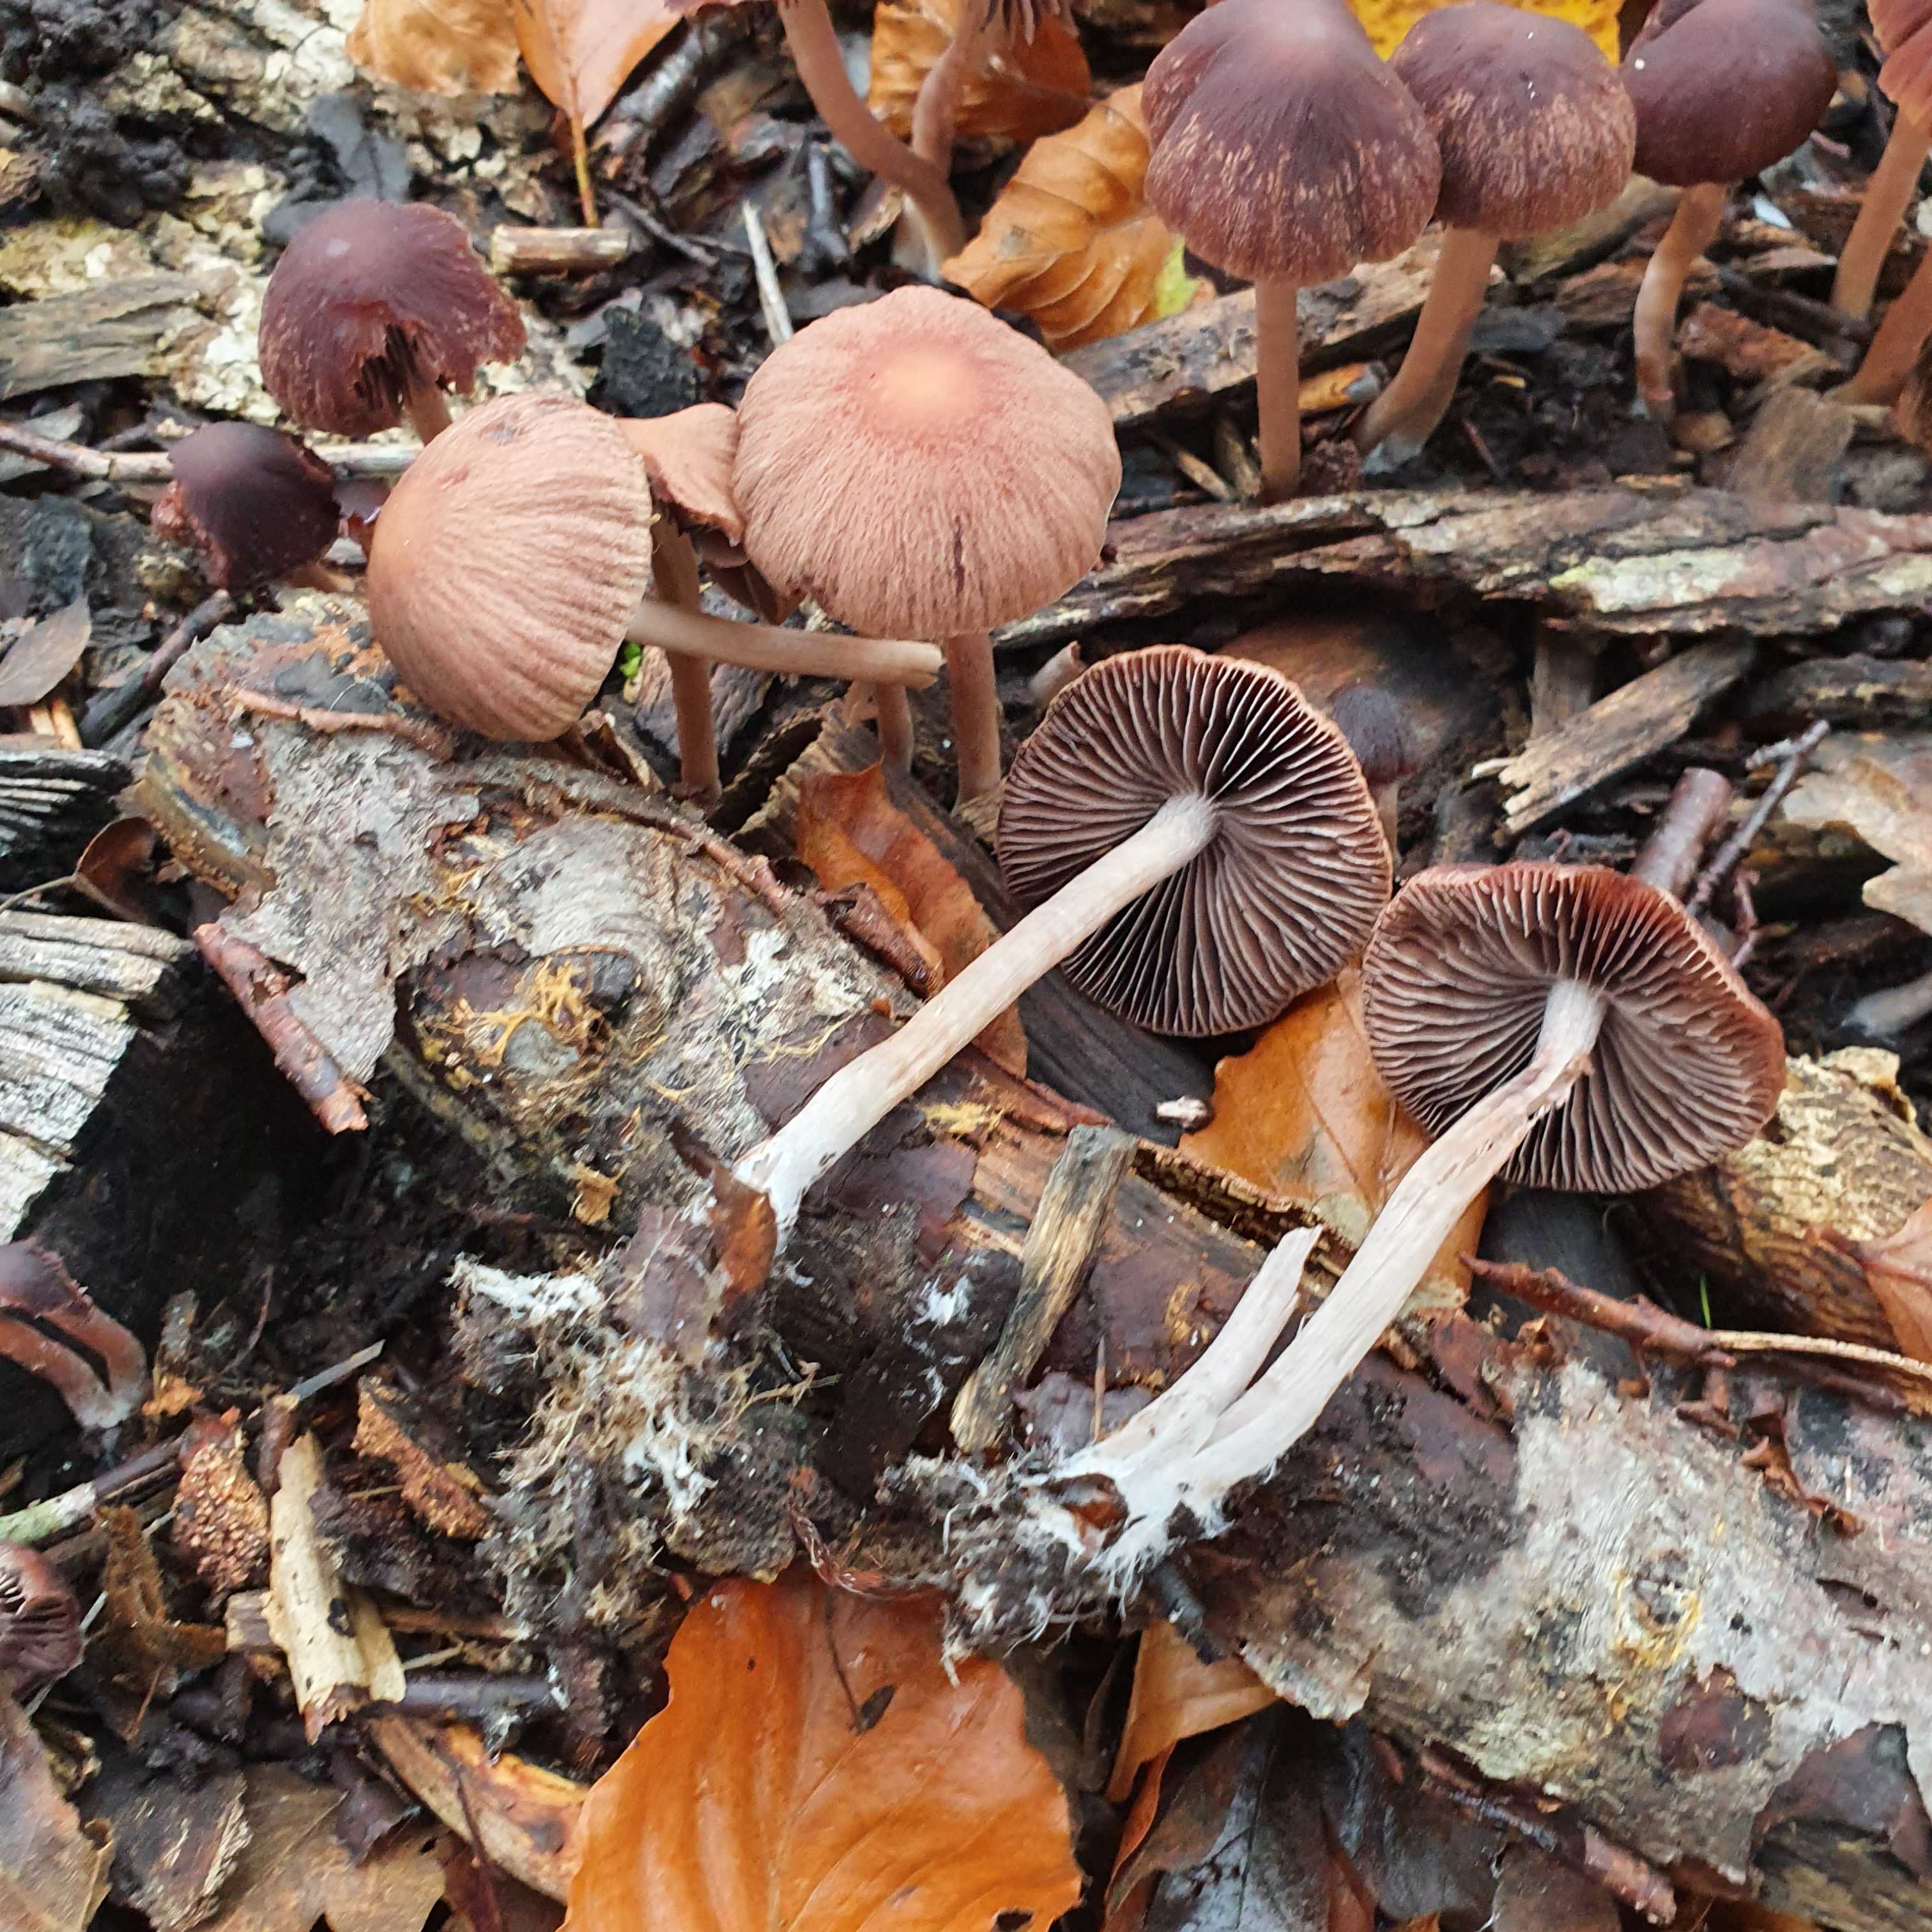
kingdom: Fungi
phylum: Basidiomycota
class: Agaricomycetes
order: Agaricales
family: Psathyrellaceae
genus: Psathyrella
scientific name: Psathyrella bipellis
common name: vinrød mørkhat
